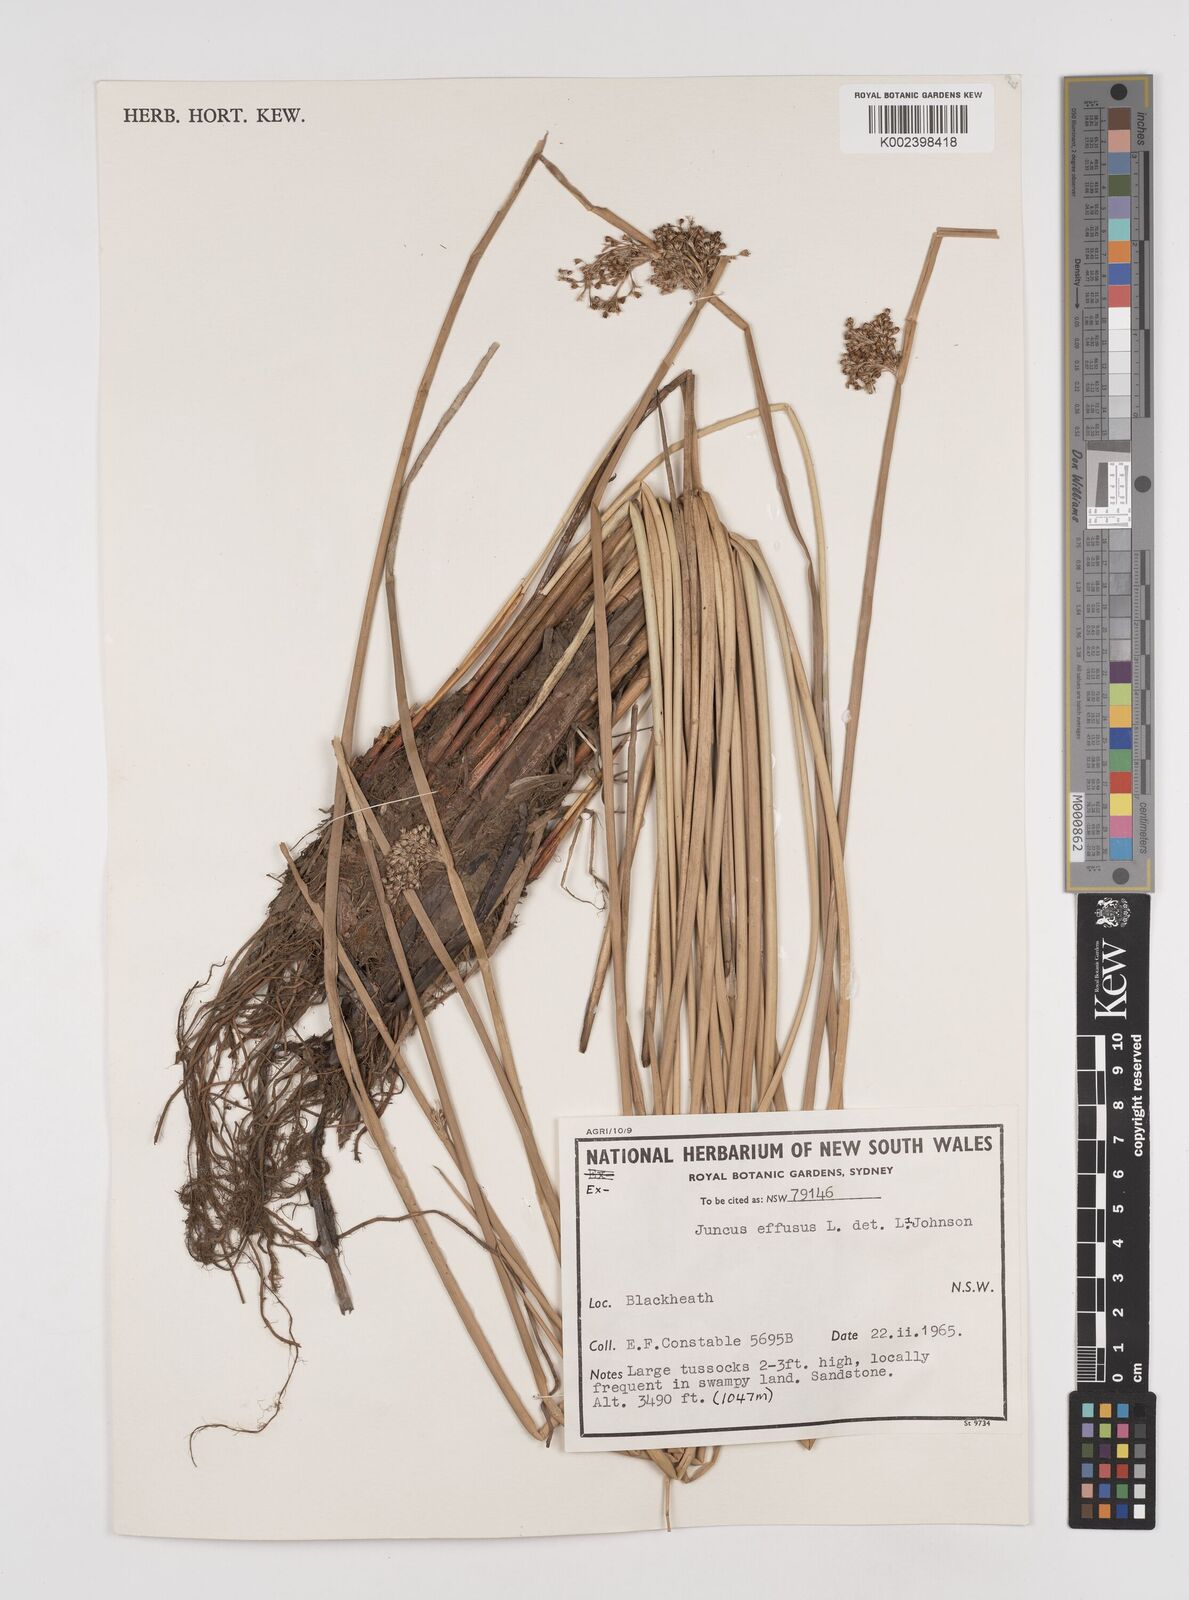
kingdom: Plantae
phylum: Tracheophyta
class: Liliopsida
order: Poales
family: Juncaceae
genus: Juncus
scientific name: Juncus effusus
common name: Soft rush
